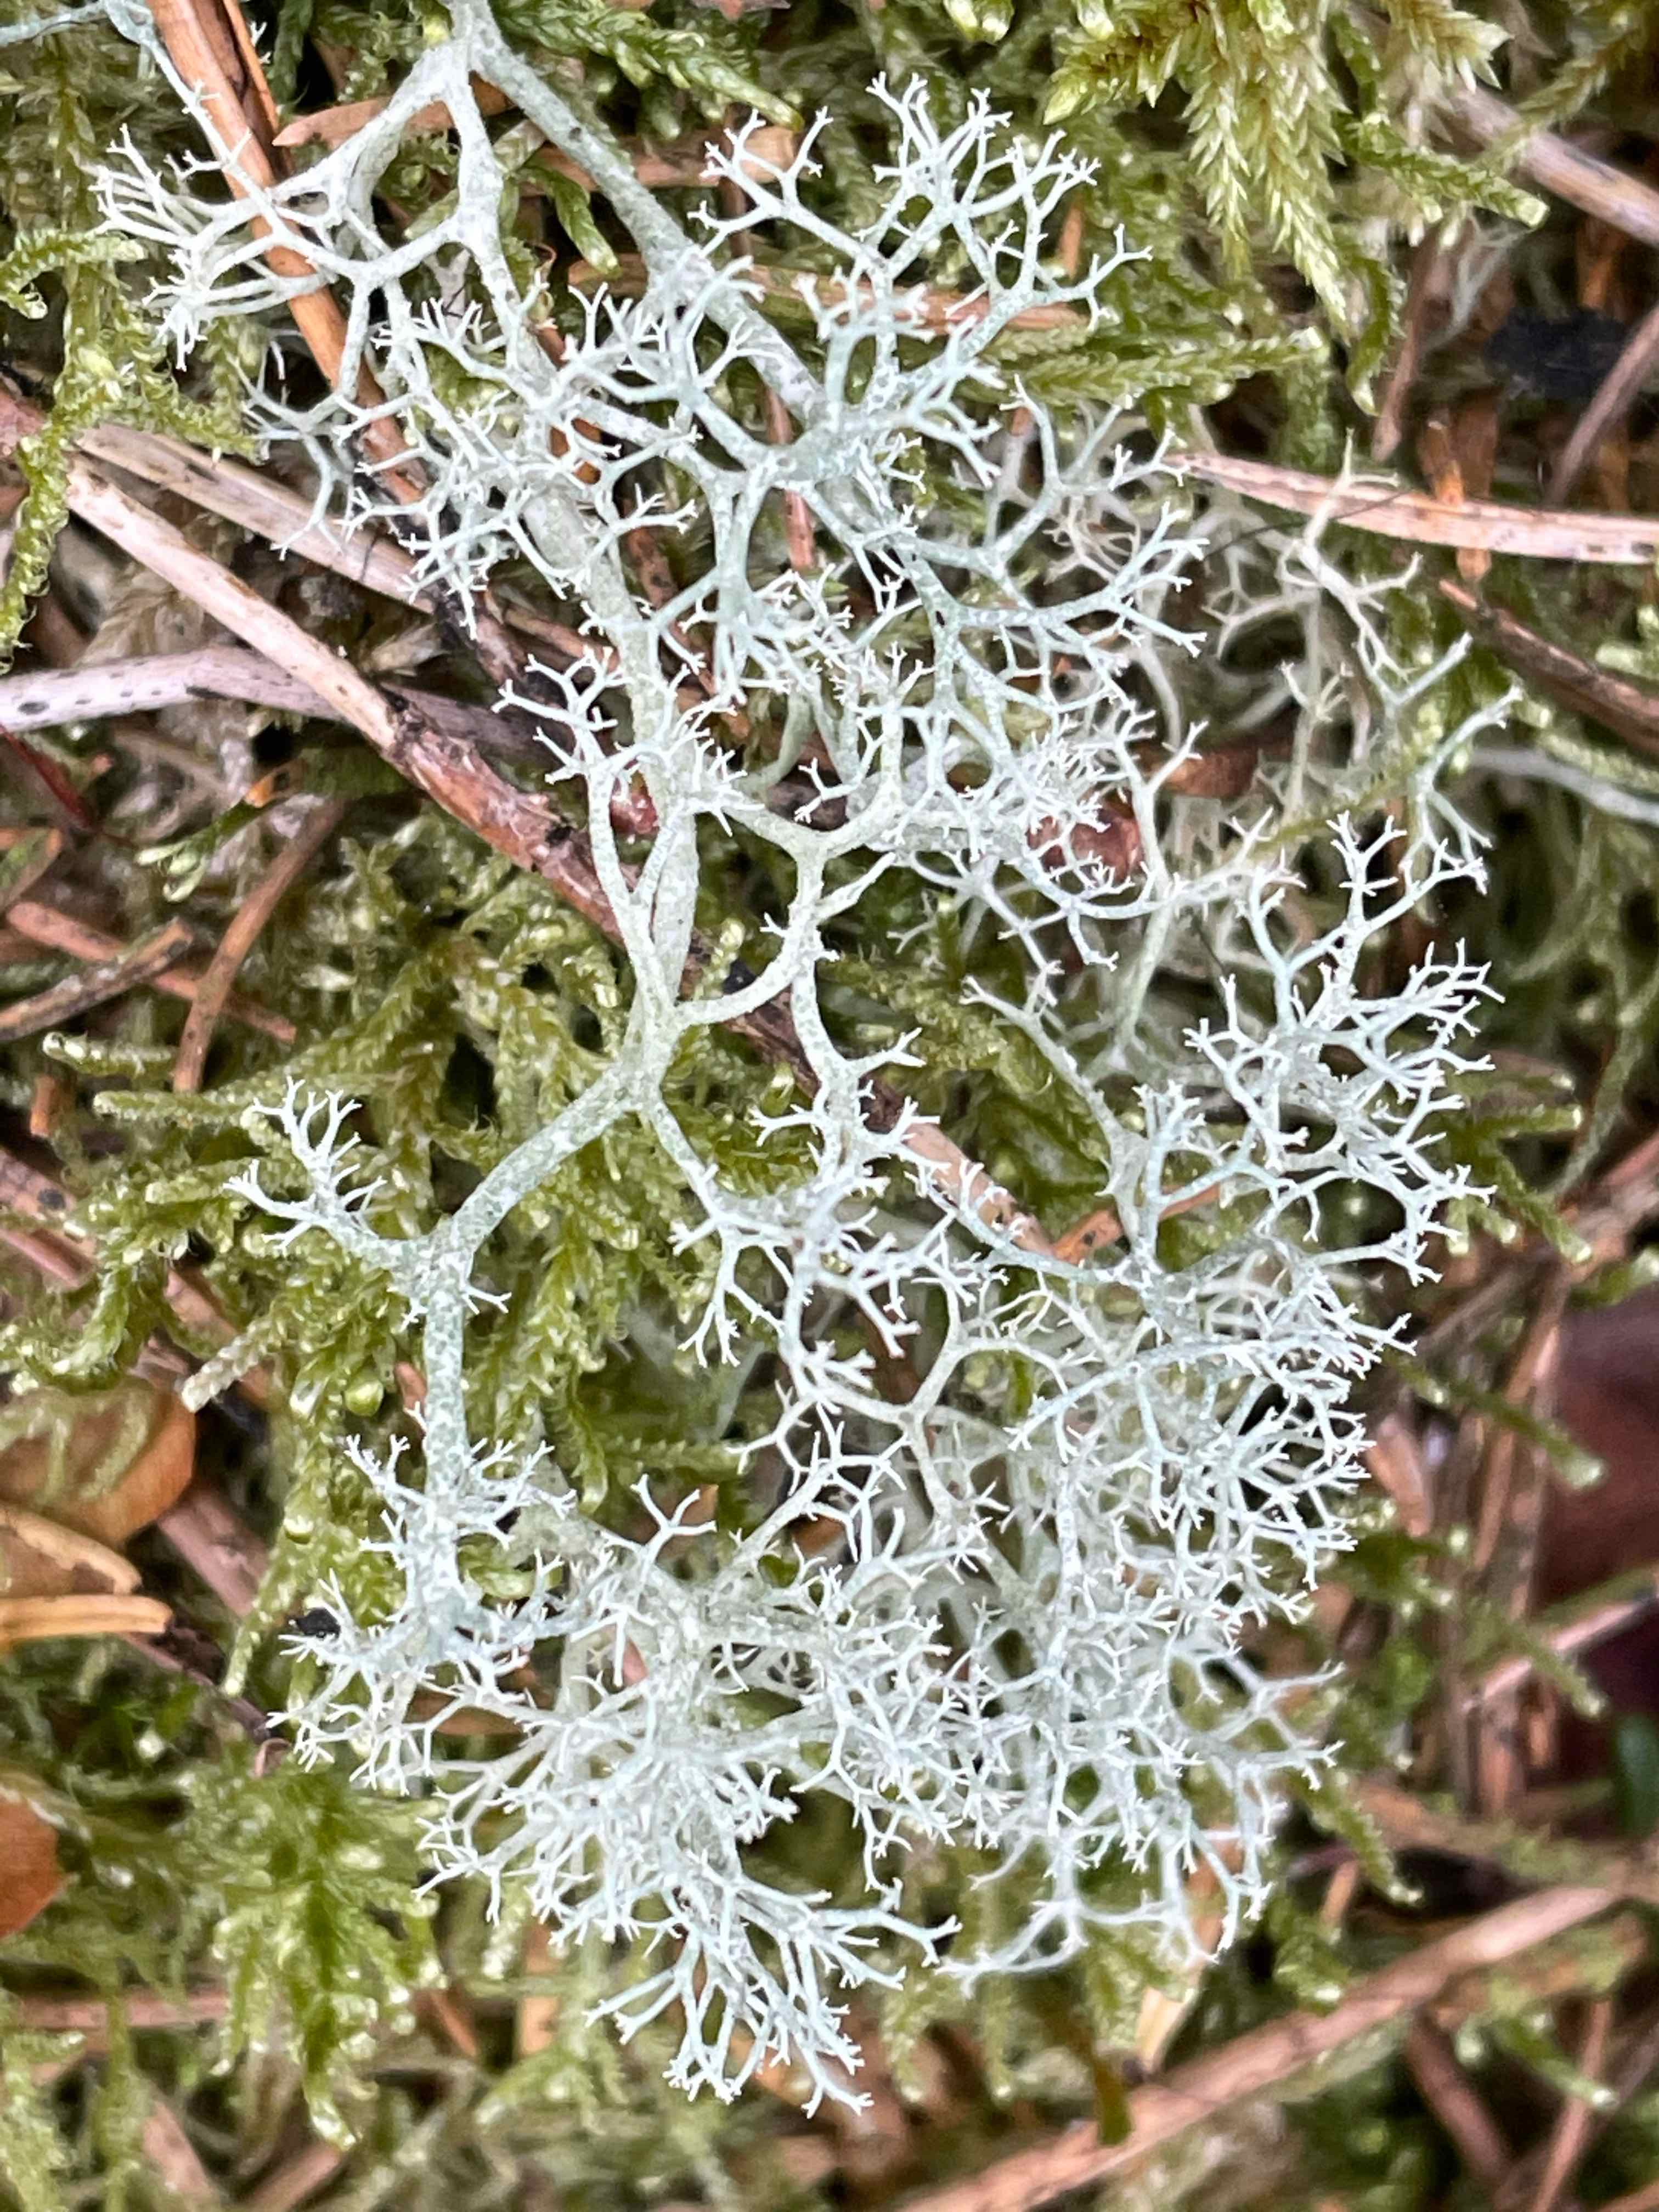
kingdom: Fungi
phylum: Ascomycota
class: Lecanoromycetes
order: Lecanorales
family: Cladoniaceae
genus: Cladonia
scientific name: Cladonia portentosa
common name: hede-rensdyrlav
